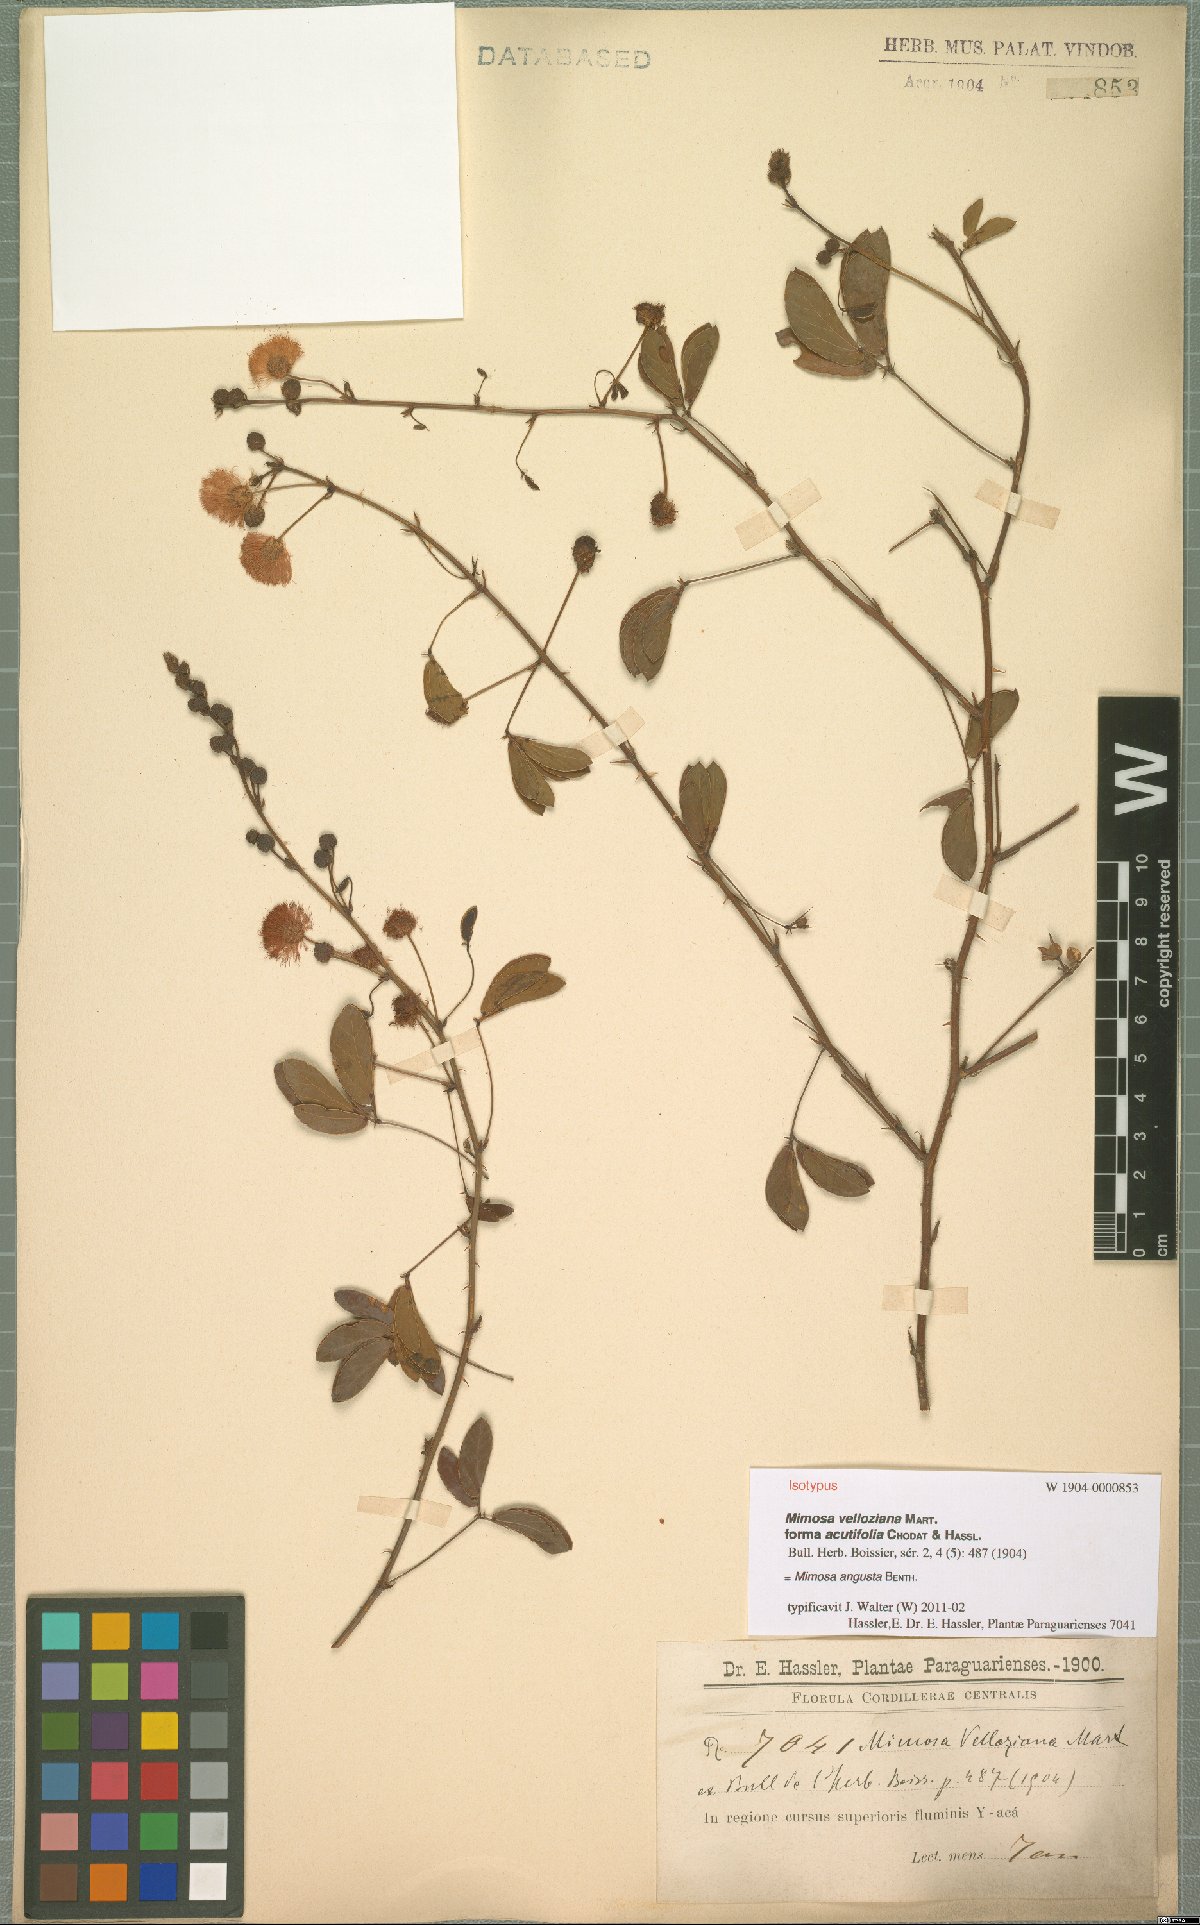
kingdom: Plantae
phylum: Tracheophyta
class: Magnoliopsida
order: Fabales
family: Fabaceae
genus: Mimosa
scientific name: Mimosa debilis
